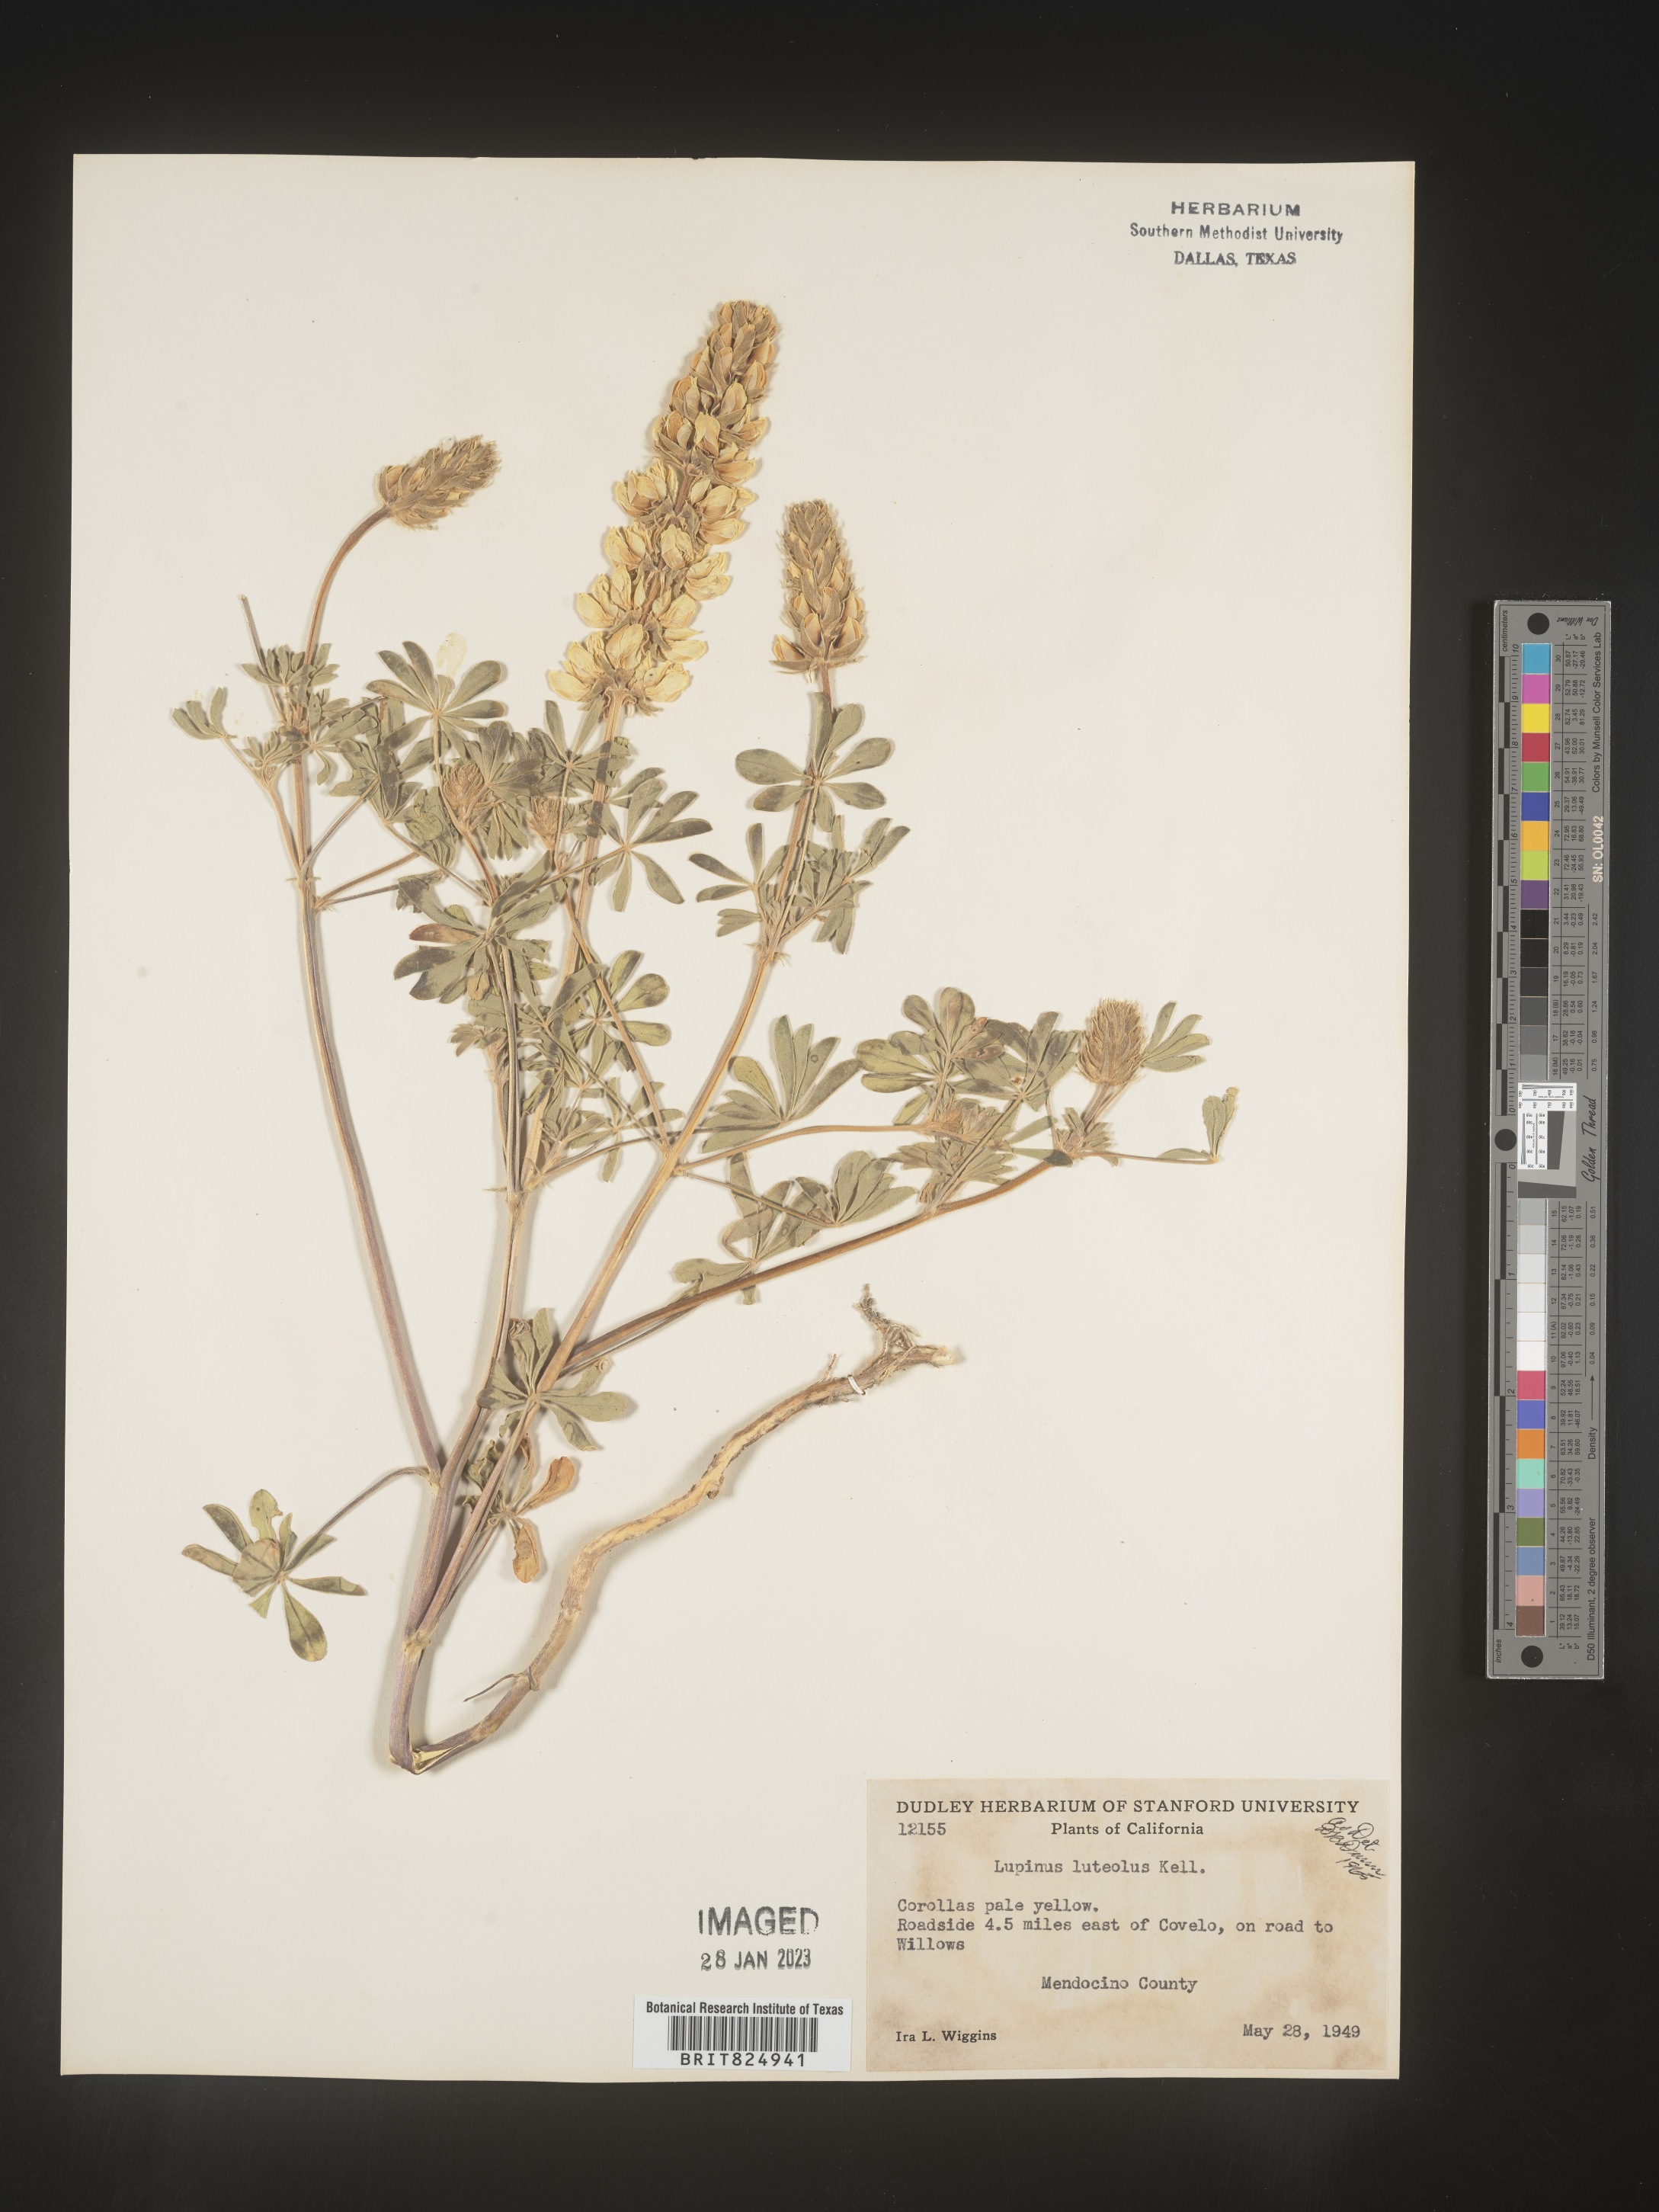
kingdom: Plantae
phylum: Tracheophyta
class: Magnoliopsida
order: Fabales
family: Fabaceae
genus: Lupinus
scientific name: Lupinus
